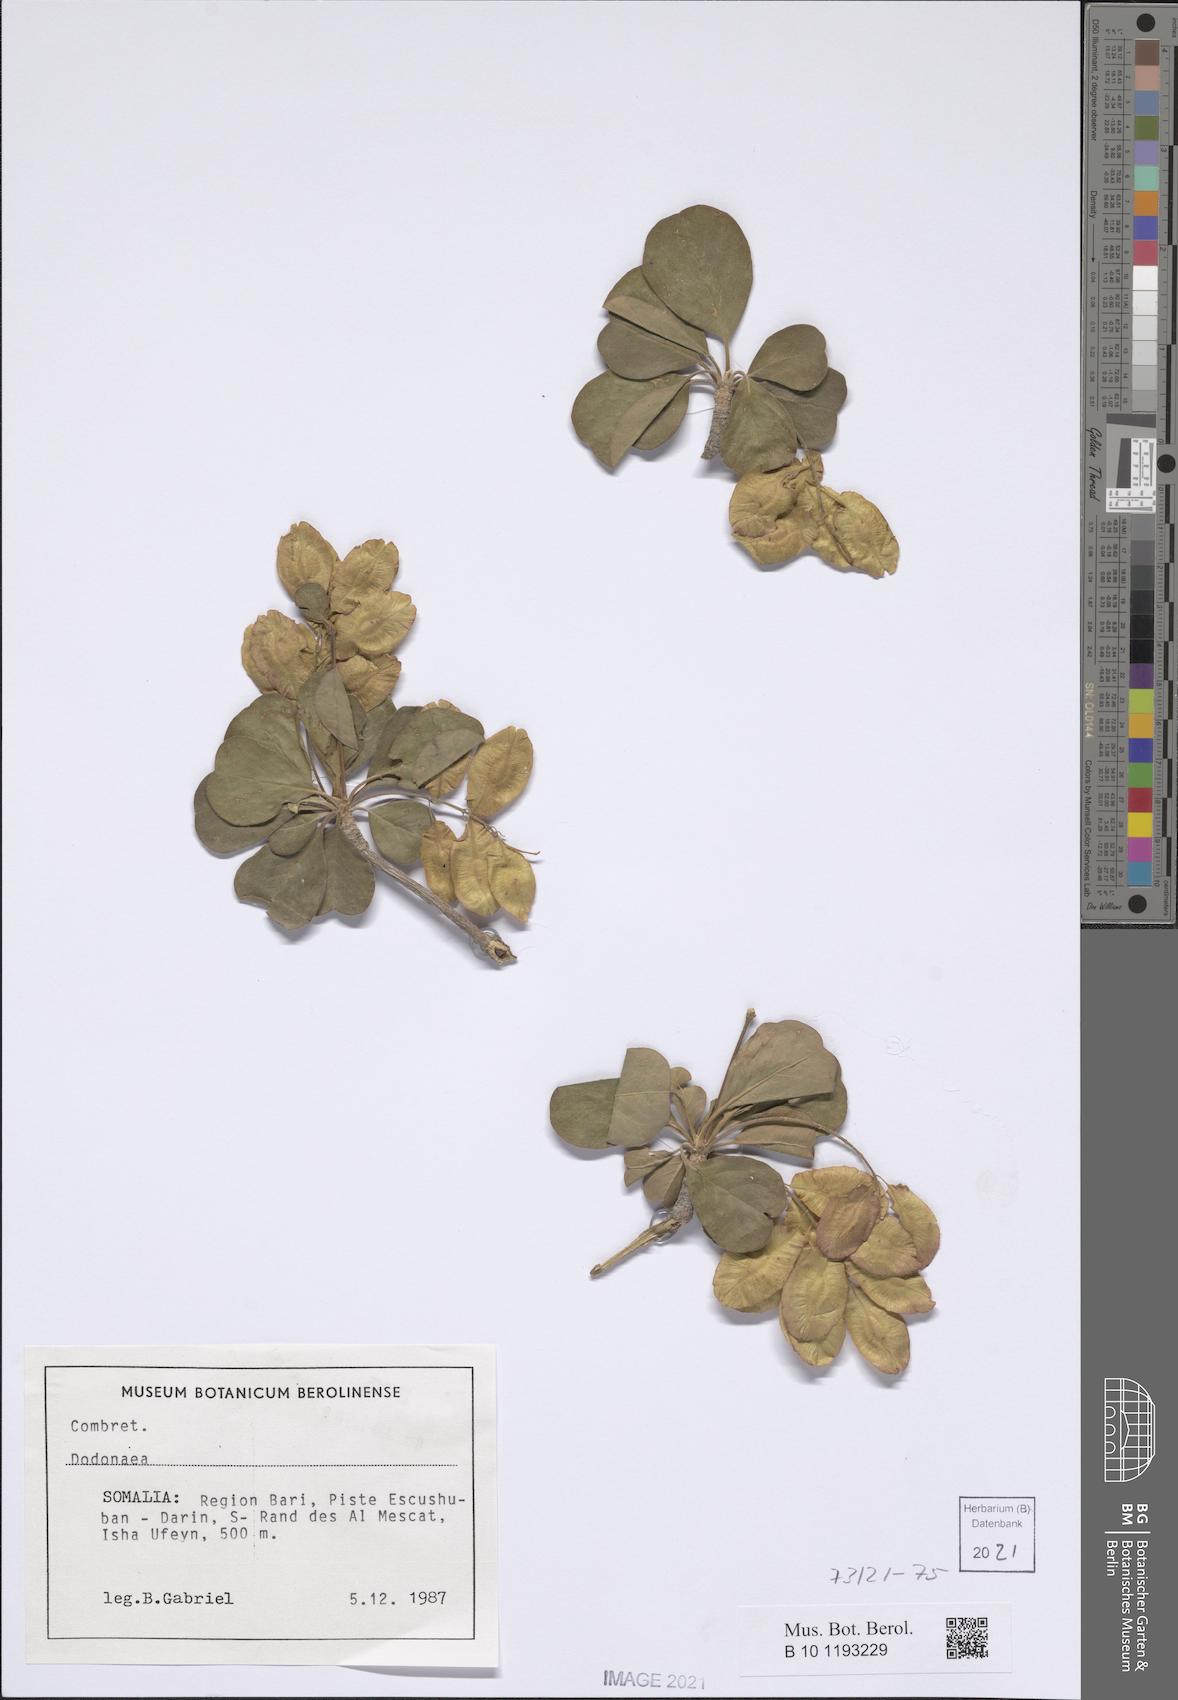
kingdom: Plantae
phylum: Tracheophyta
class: Magnoliopsida
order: Sapindales
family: Sapindaceae
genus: Dodonaea
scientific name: Dodonaea
